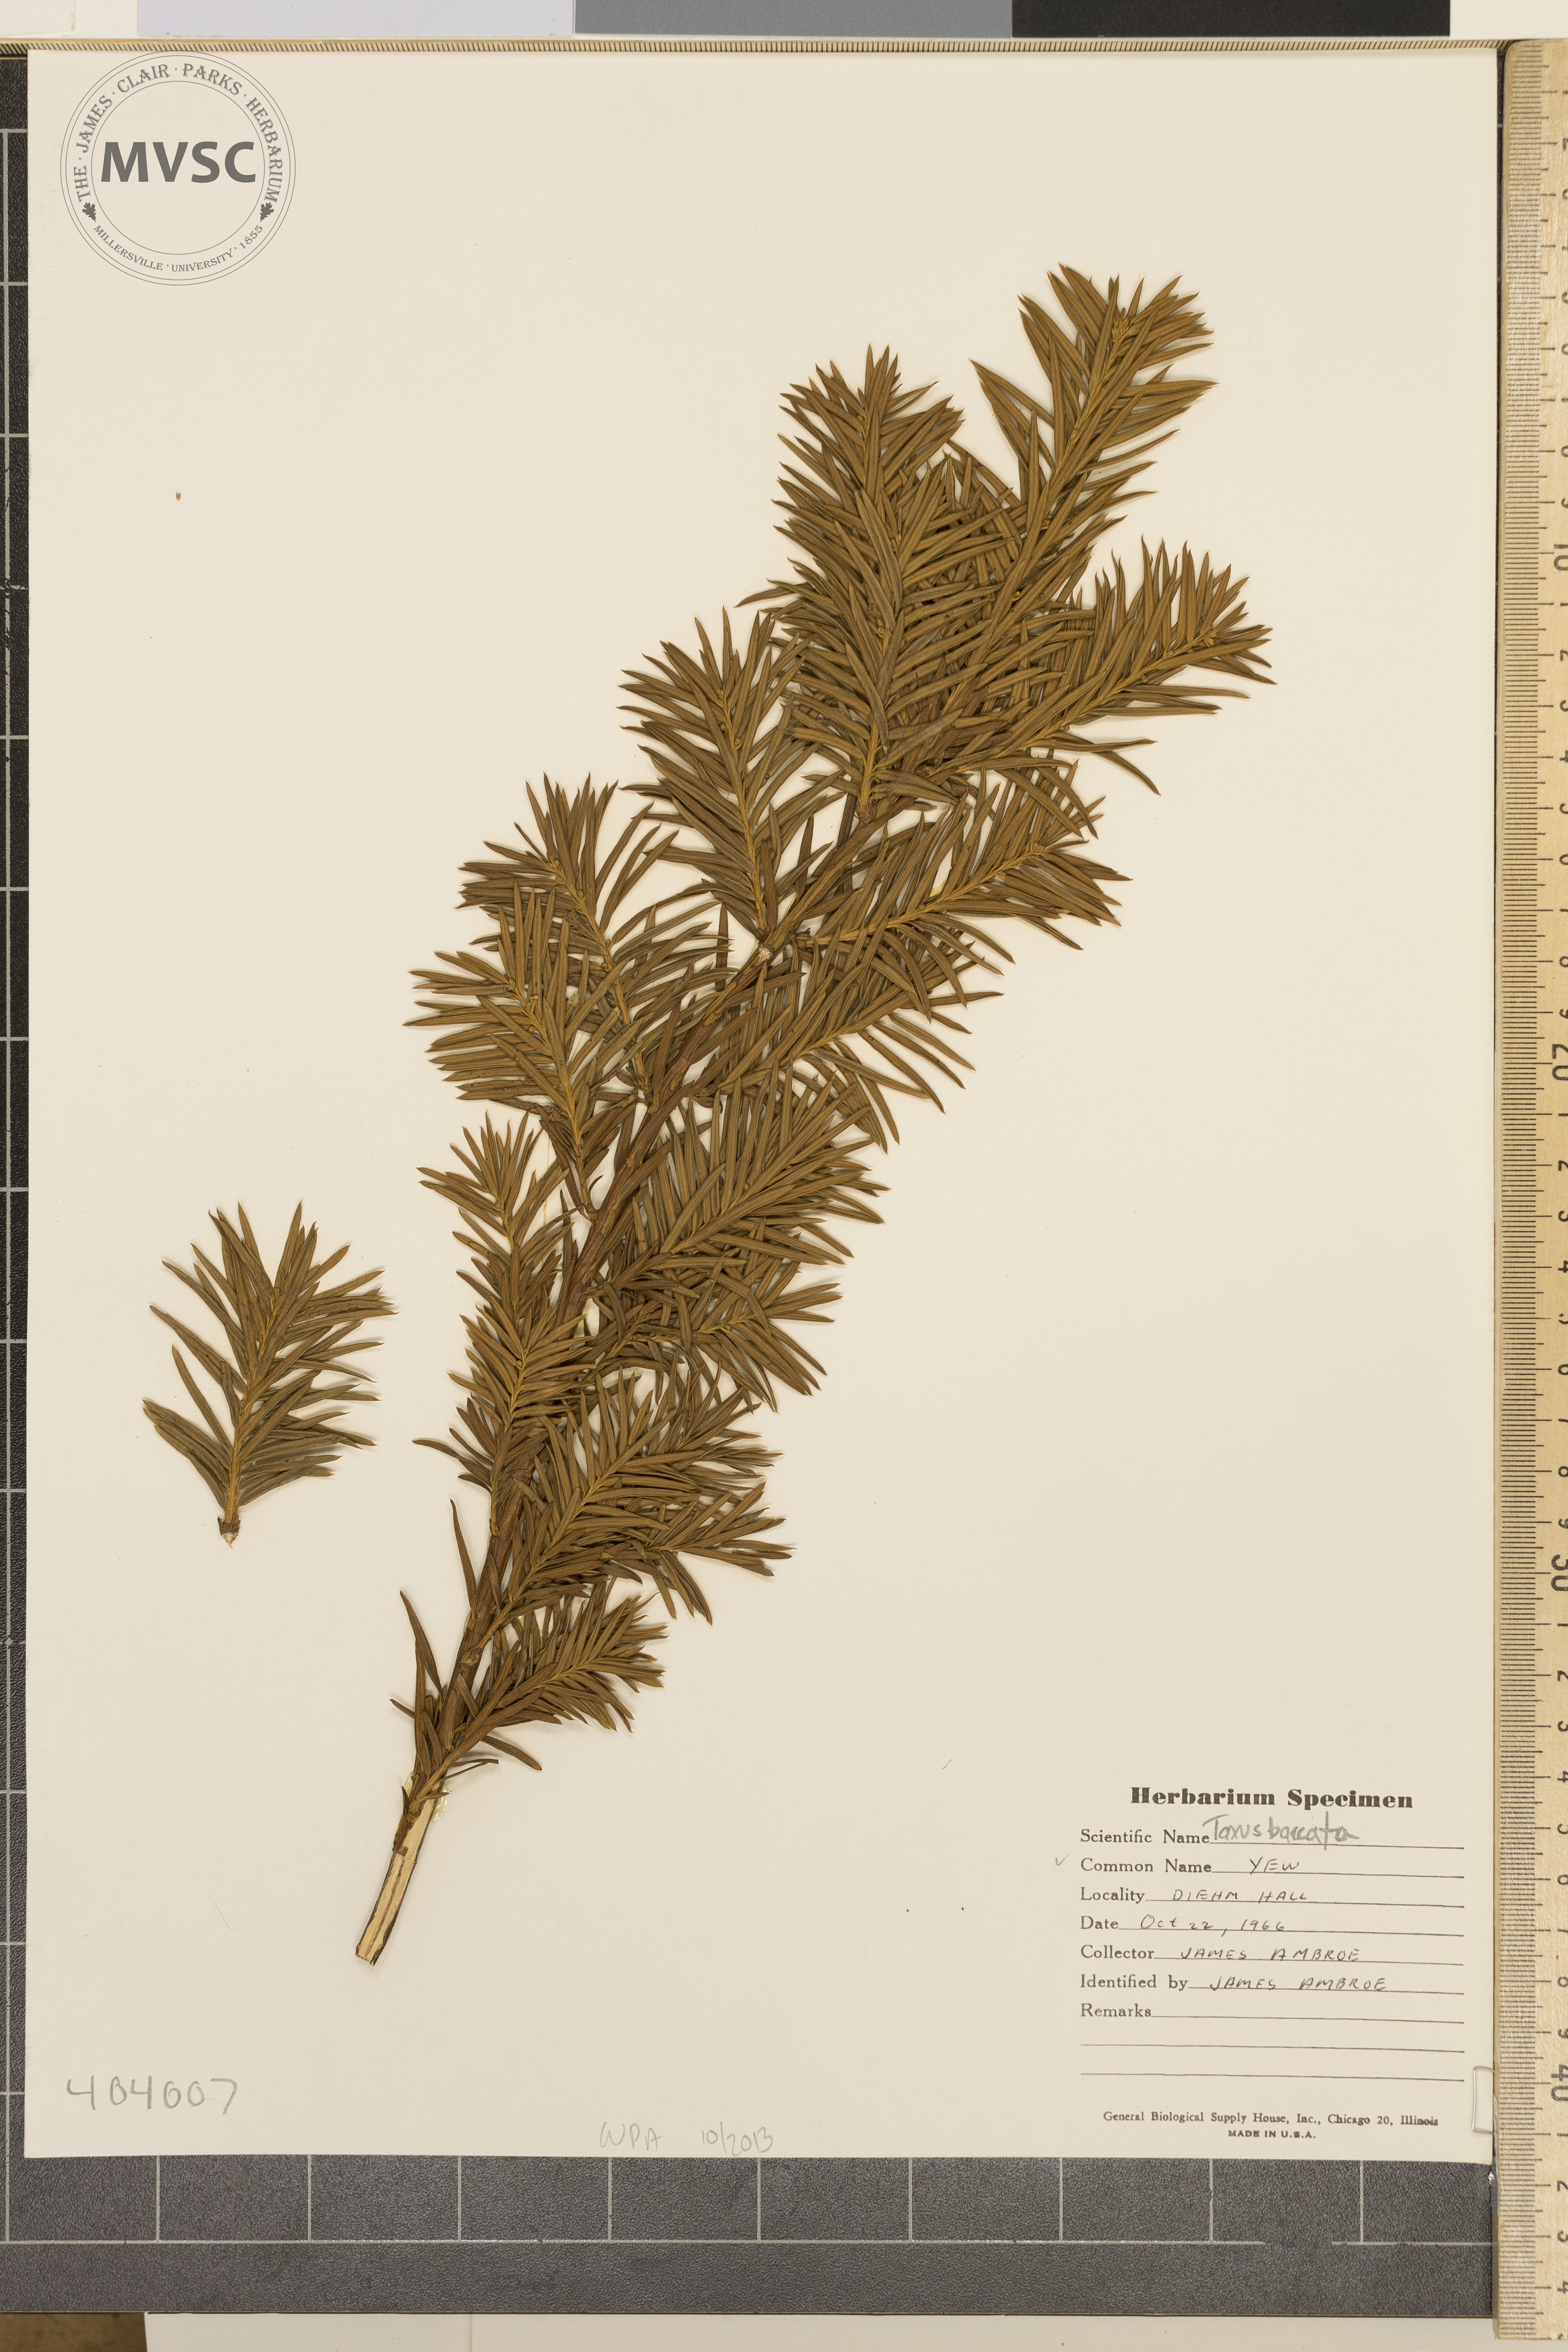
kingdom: Plantae
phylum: Tracheophyta
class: Pinopsida
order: Pinales
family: Taxaceae
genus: Taxus
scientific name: Taxus baccata
